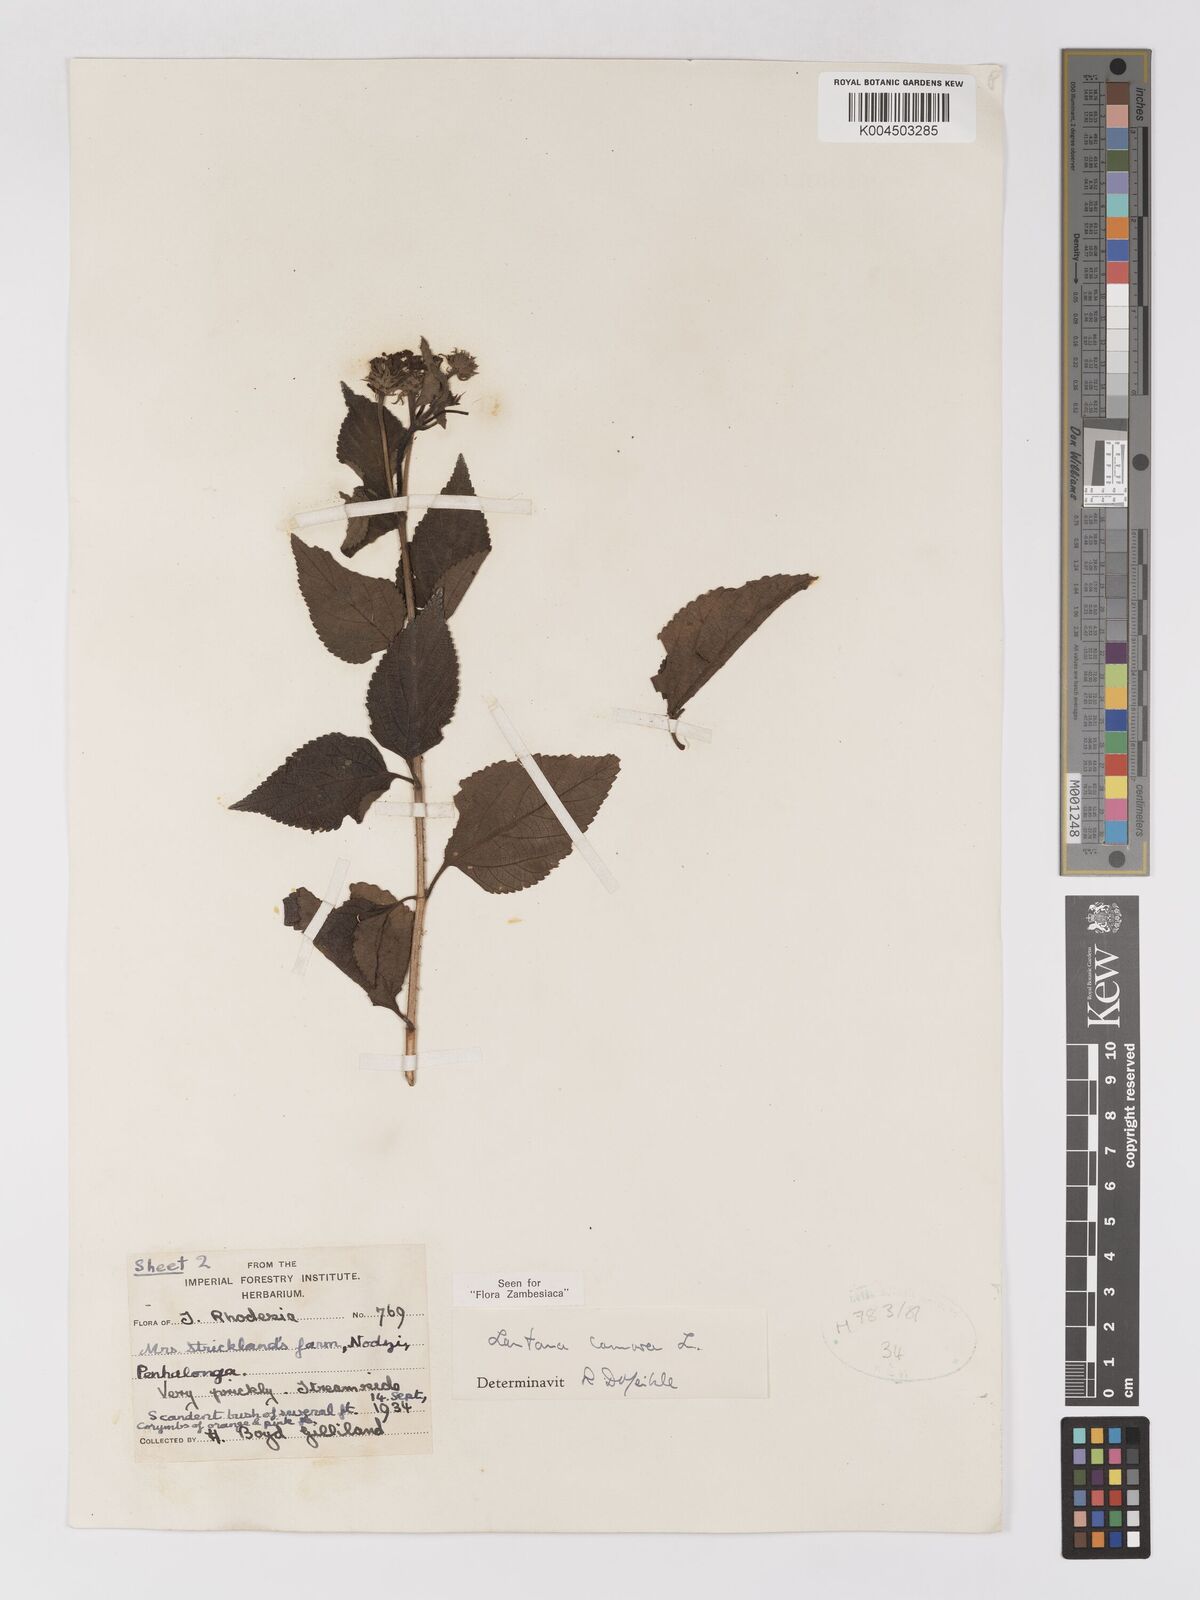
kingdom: Plantae
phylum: Tracheophyta
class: Magnoliopsida
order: Lamiales
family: Verbenaceae
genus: Lantana
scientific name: Lantana camara
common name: Lantana
